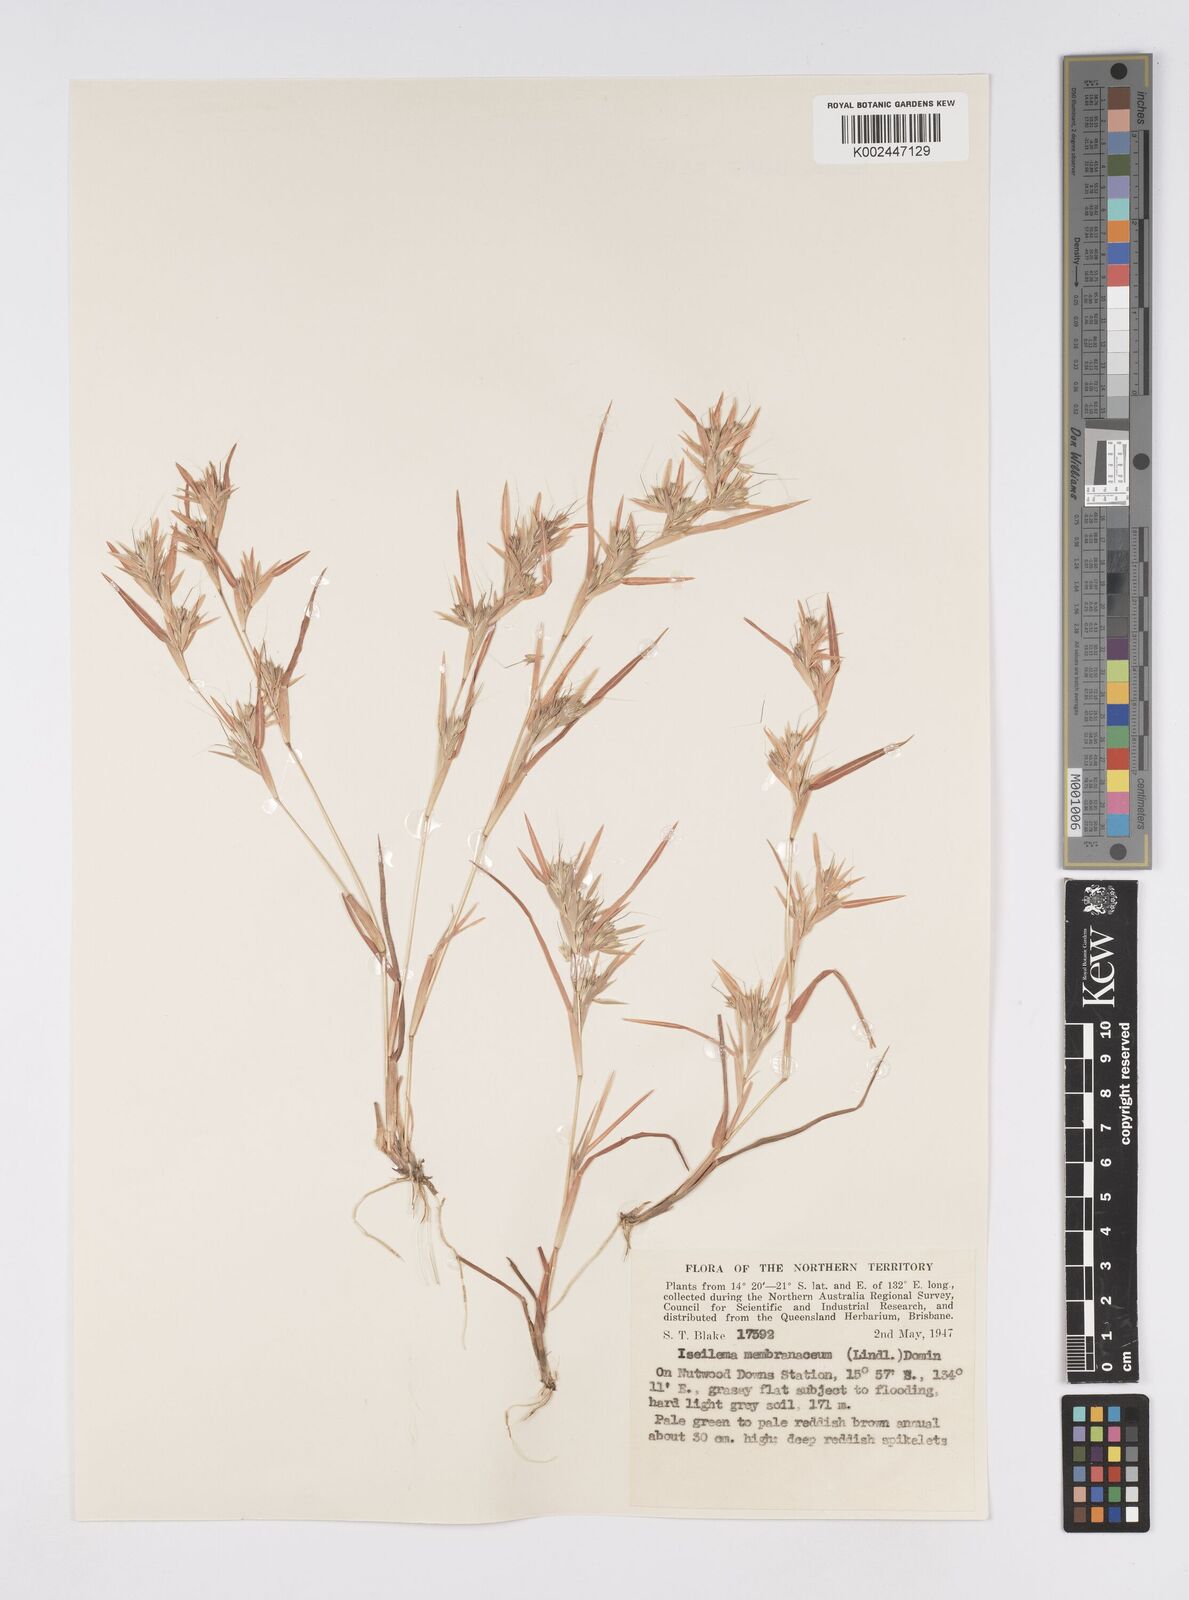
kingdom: Plantae
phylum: Tracheophyta
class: Liliopsida
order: Poales
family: Poaceae
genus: Iseilema
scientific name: Iseilema membranaceum
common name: Small flinders grass
